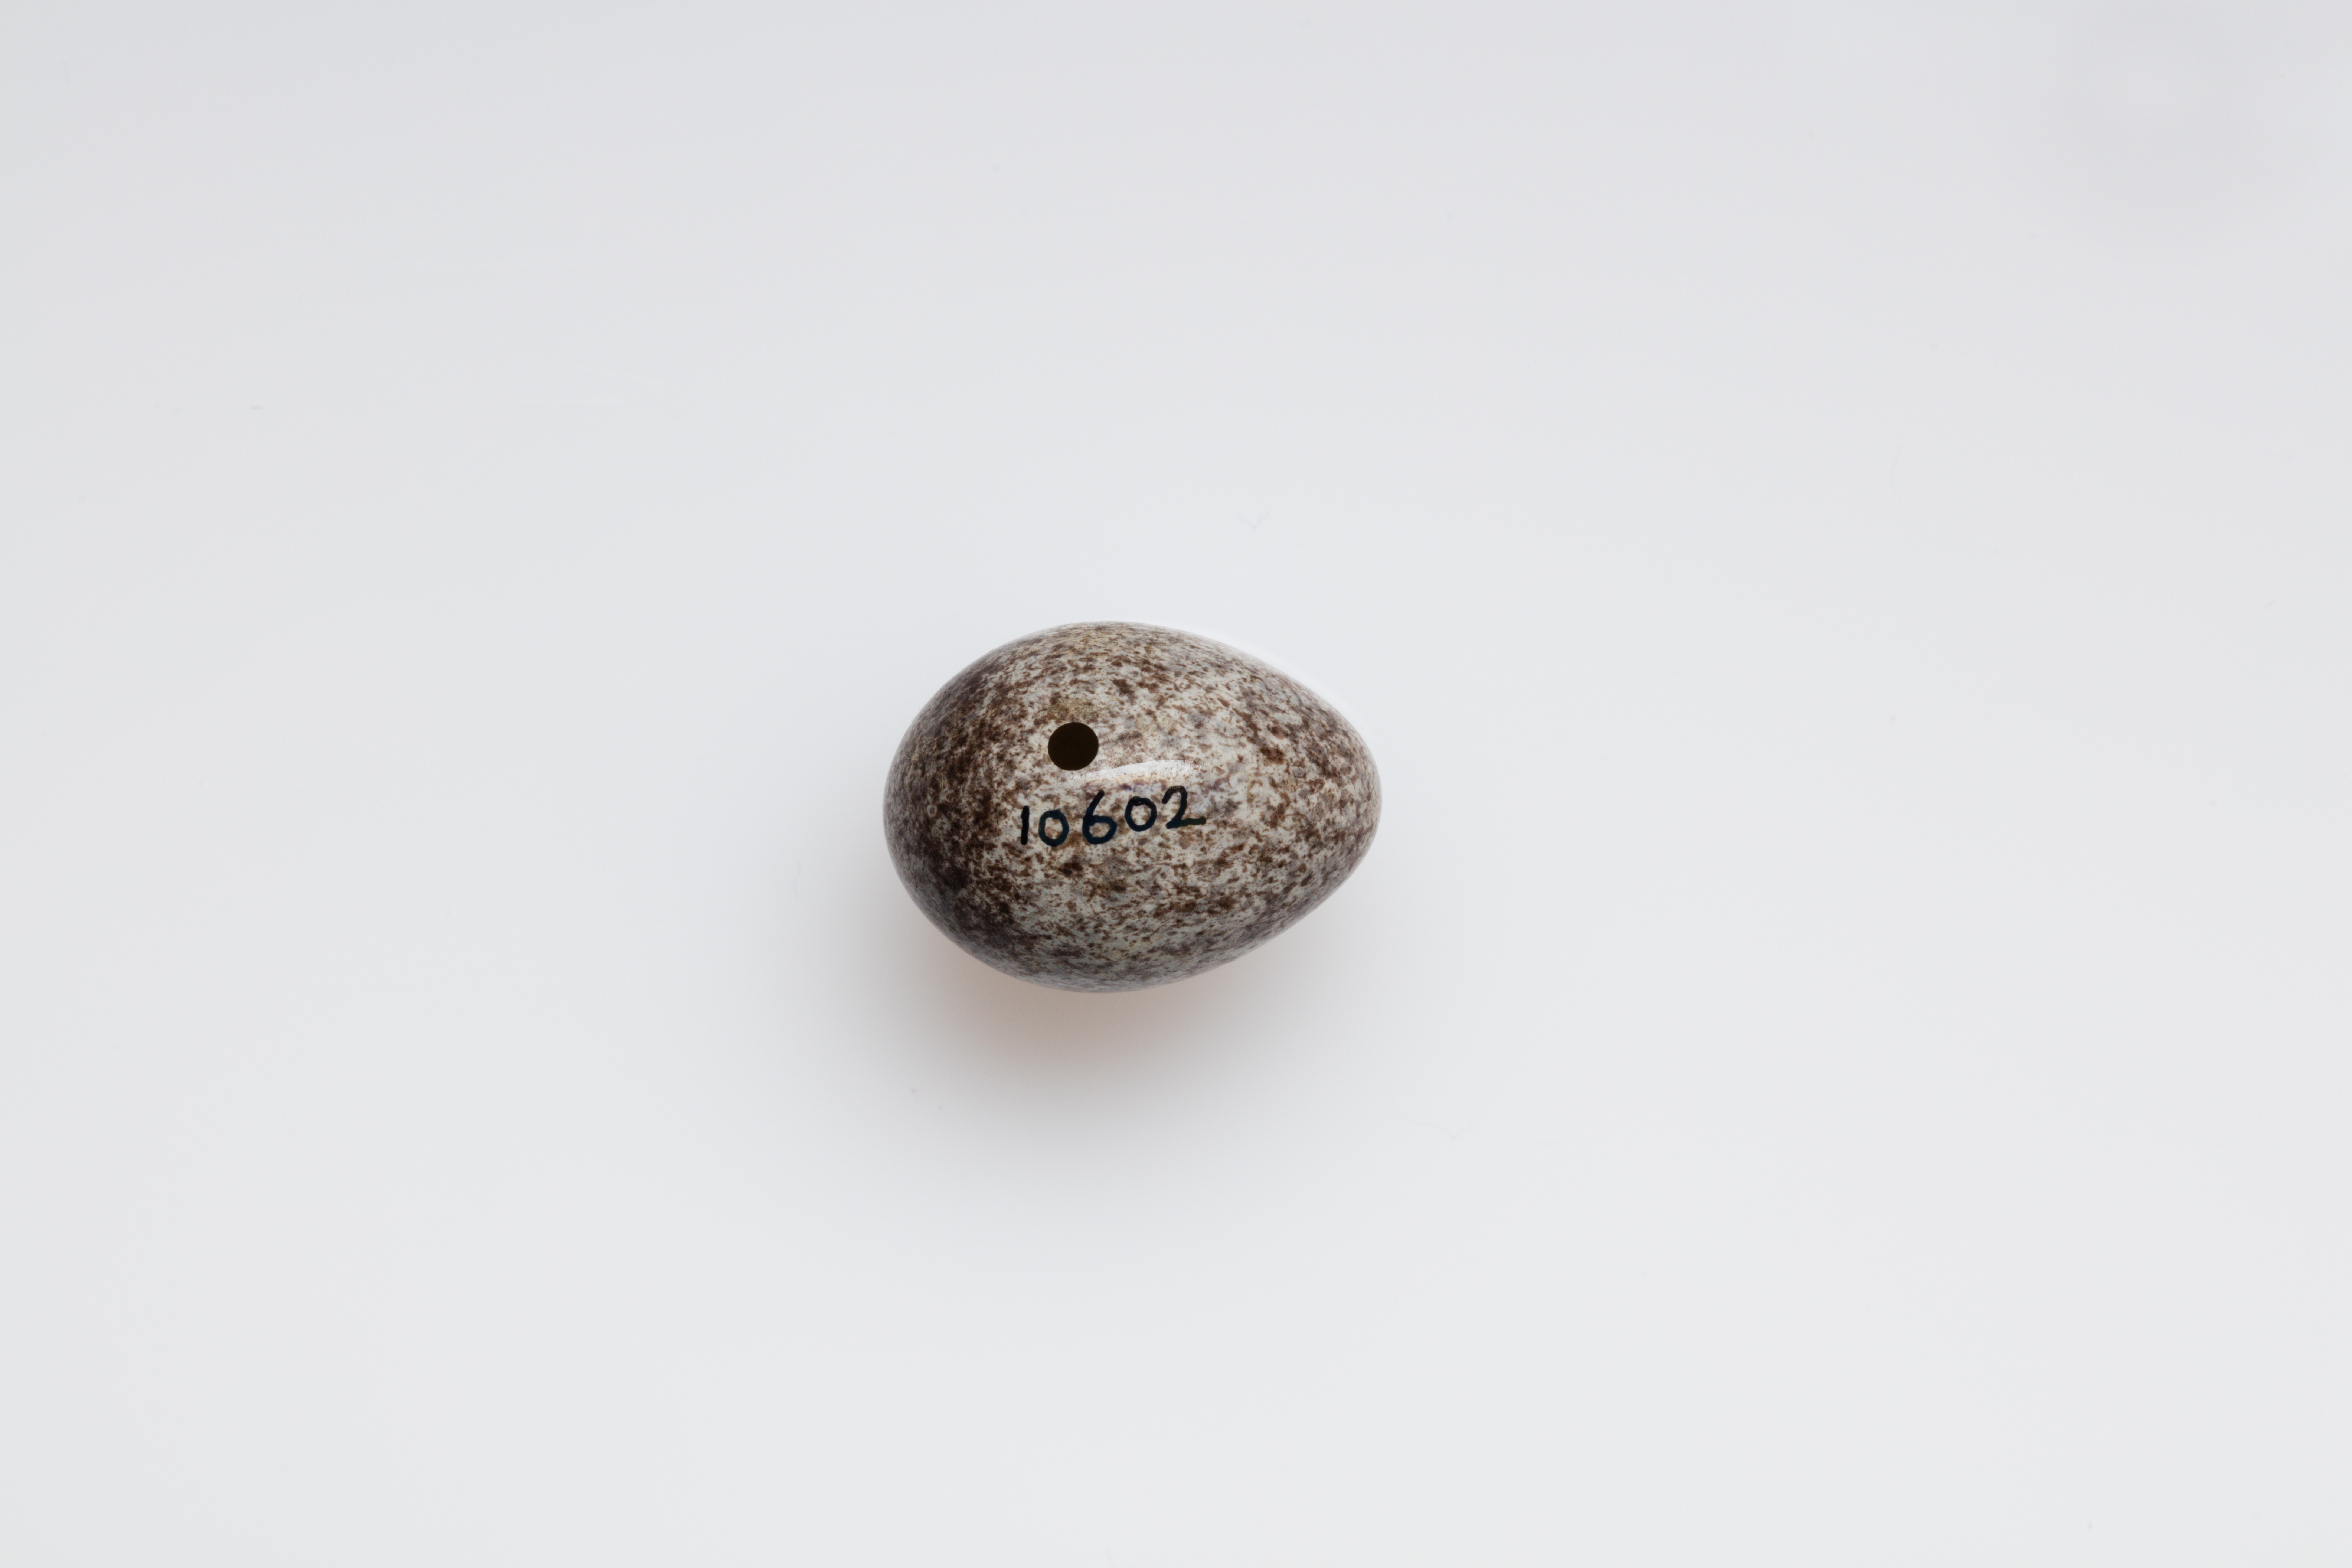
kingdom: Animalia
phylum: Chordata
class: Aves
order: Passeriformes
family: Motacillidae
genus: Anthus
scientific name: Anthus pratensis
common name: Meadow pipit
